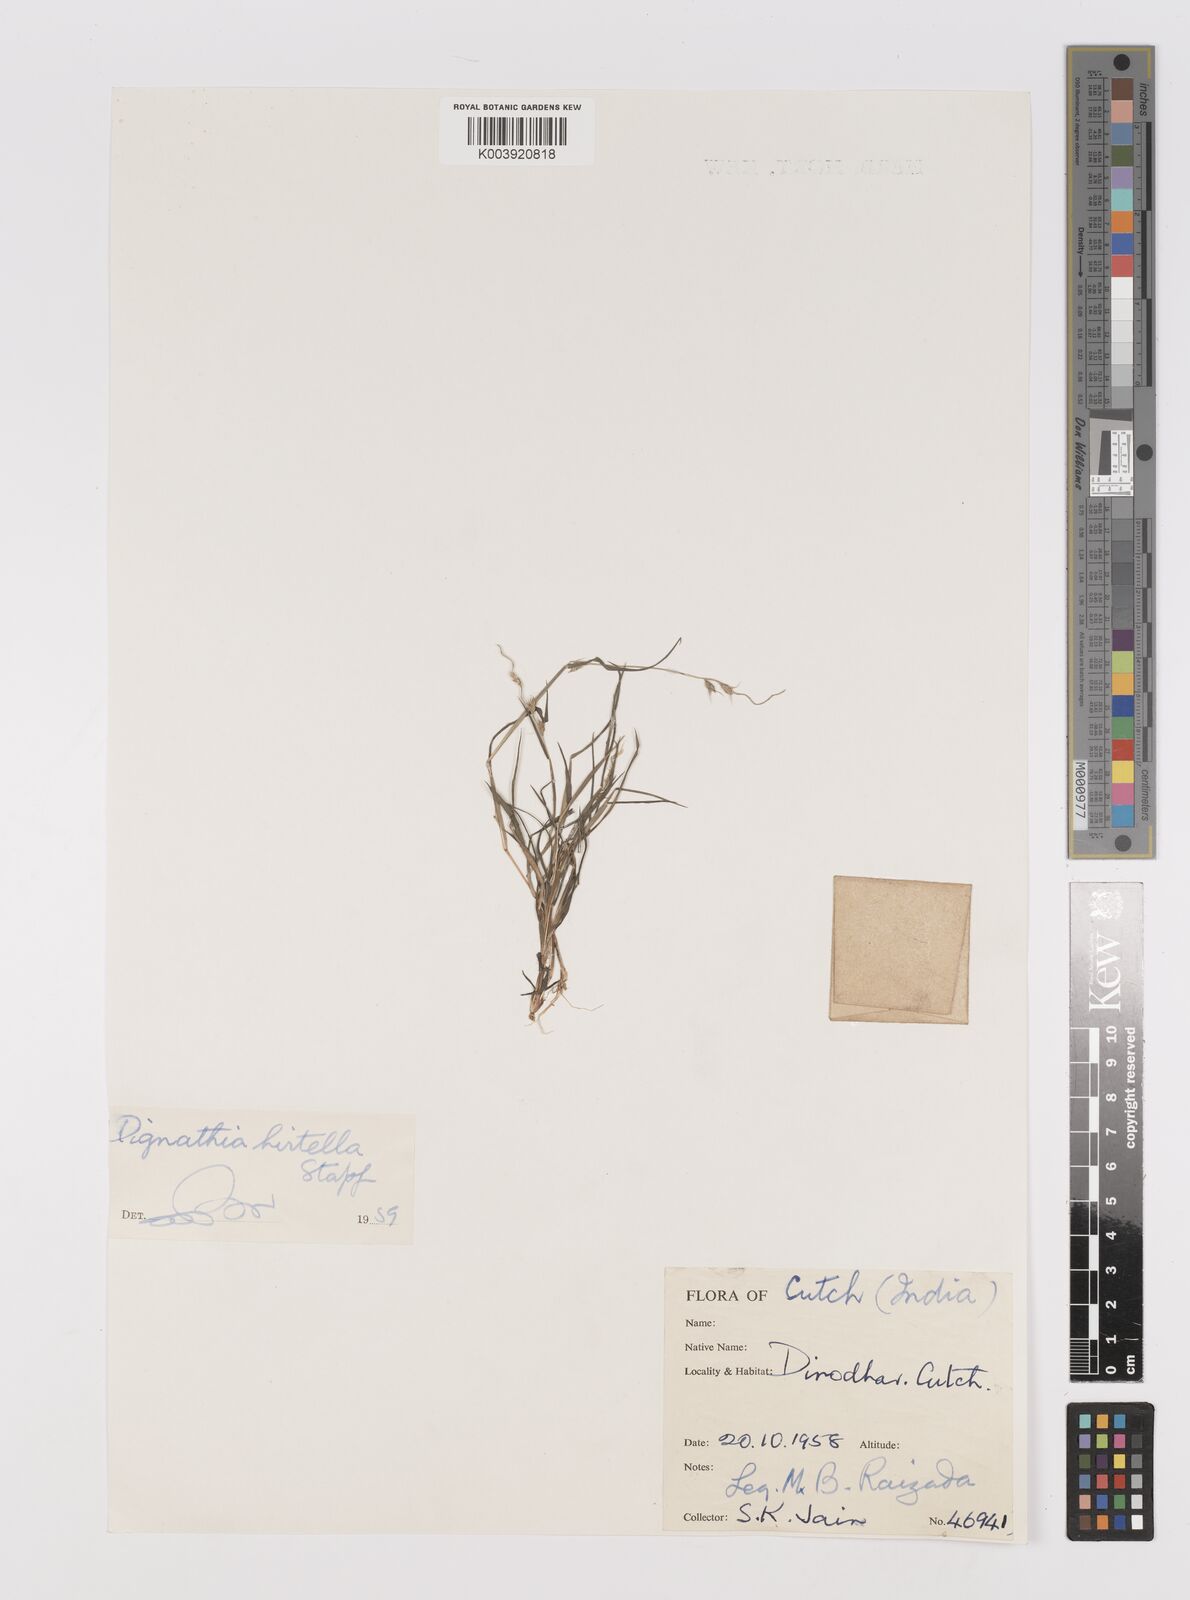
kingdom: Plantae
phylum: Tracheophyta
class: Liliopsida
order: Poales
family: Poaceae
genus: Dignathia
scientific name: Dignathia hirtella
